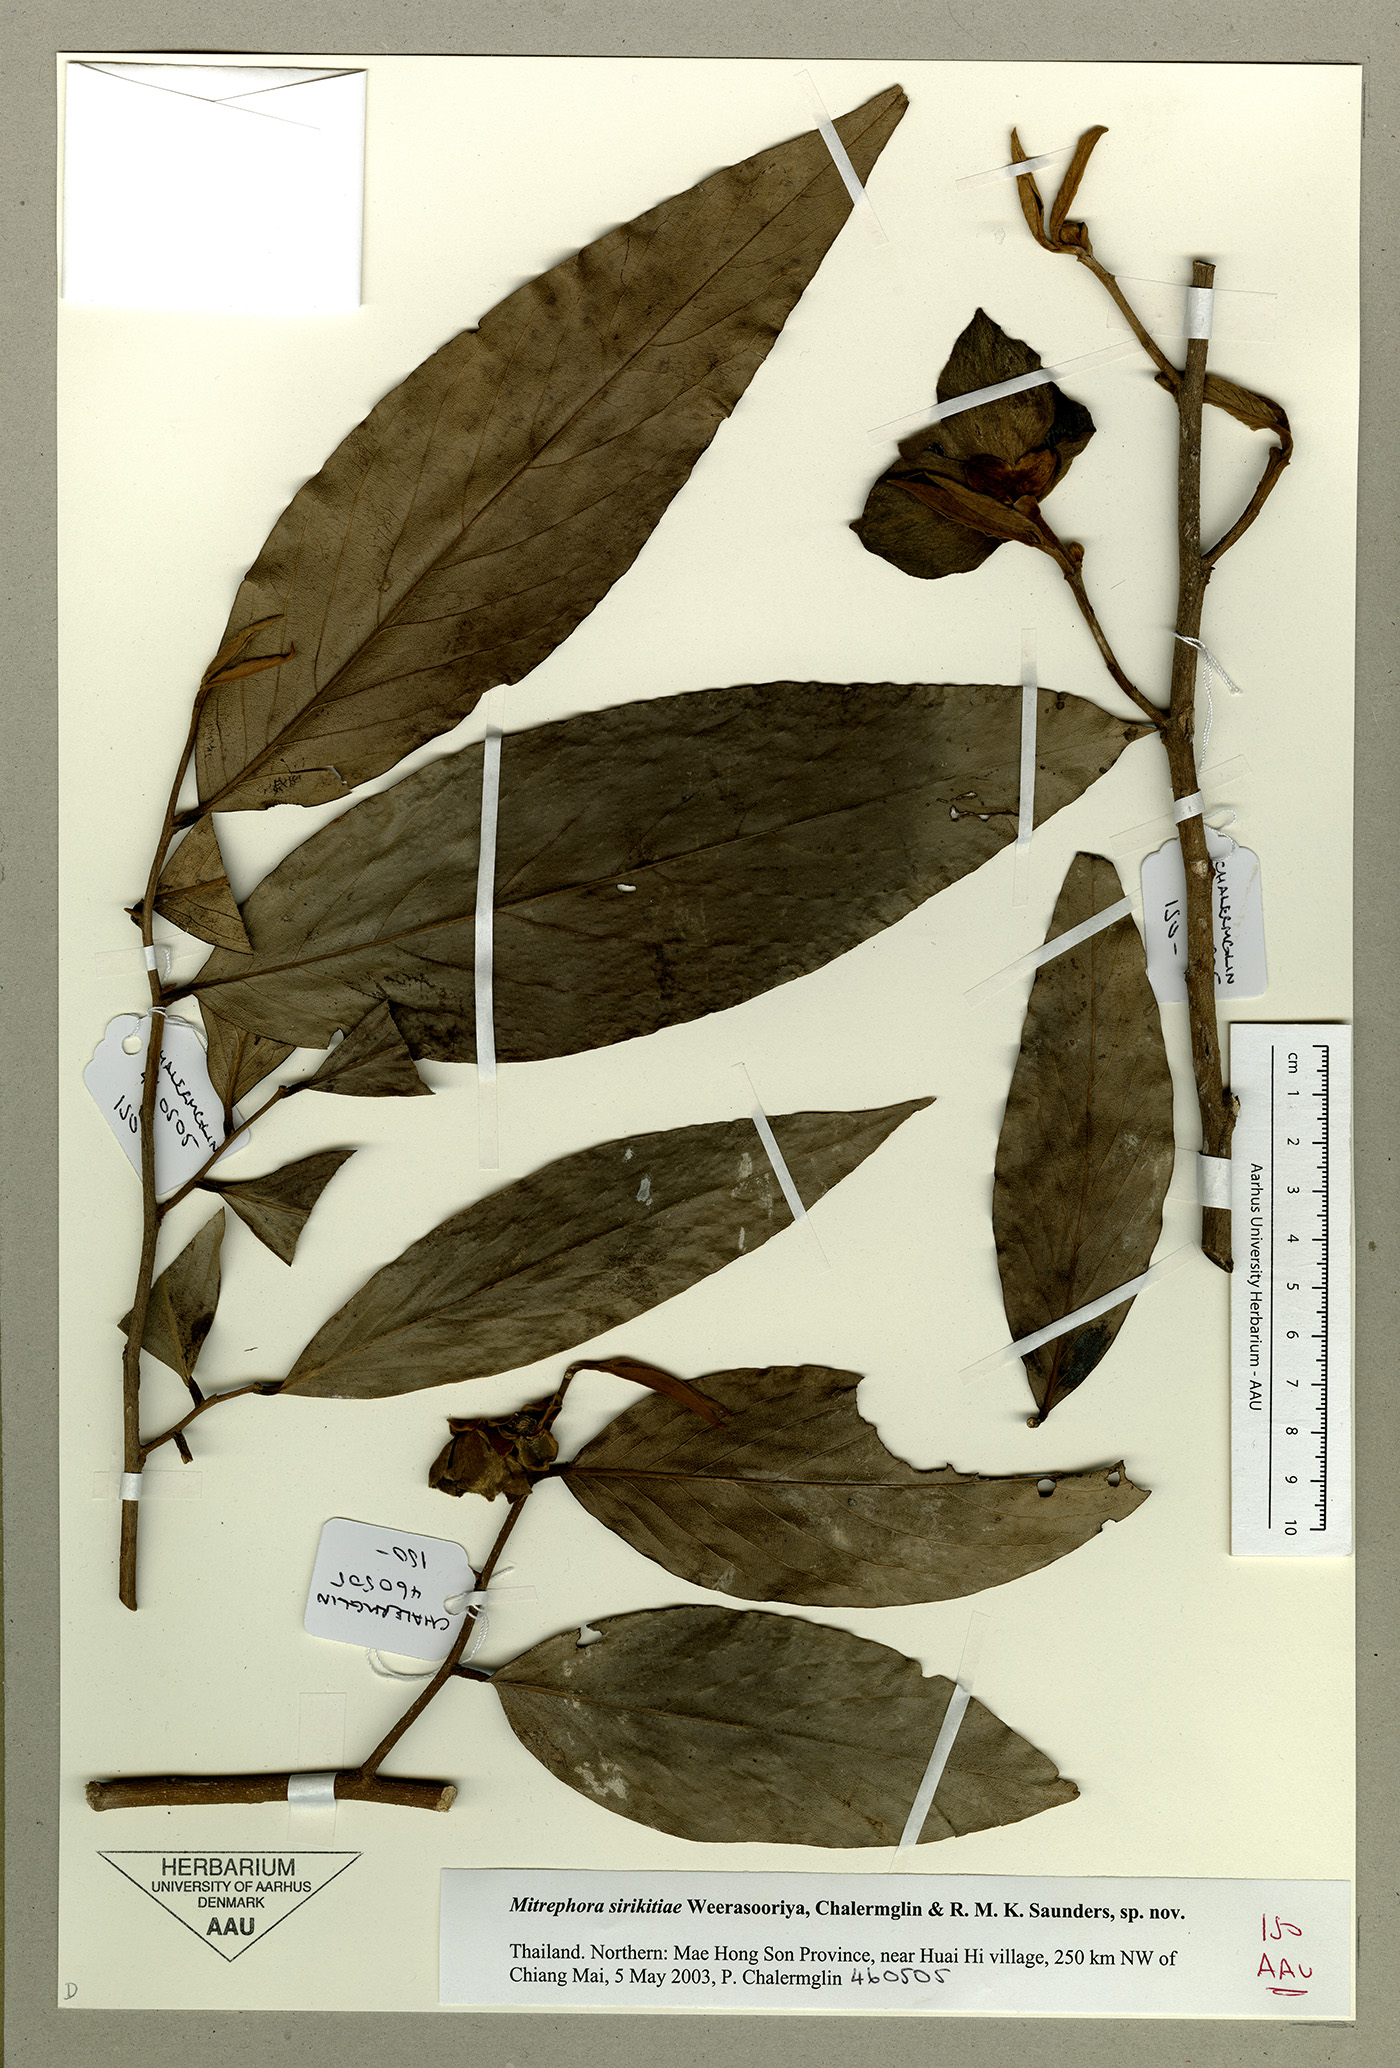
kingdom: Plantae
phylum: Tracheophyta
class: Magnoliopsida
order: Magnoliales
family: Annonaceae
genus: Mitrephora
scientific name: Mitrephora sirikitiae
